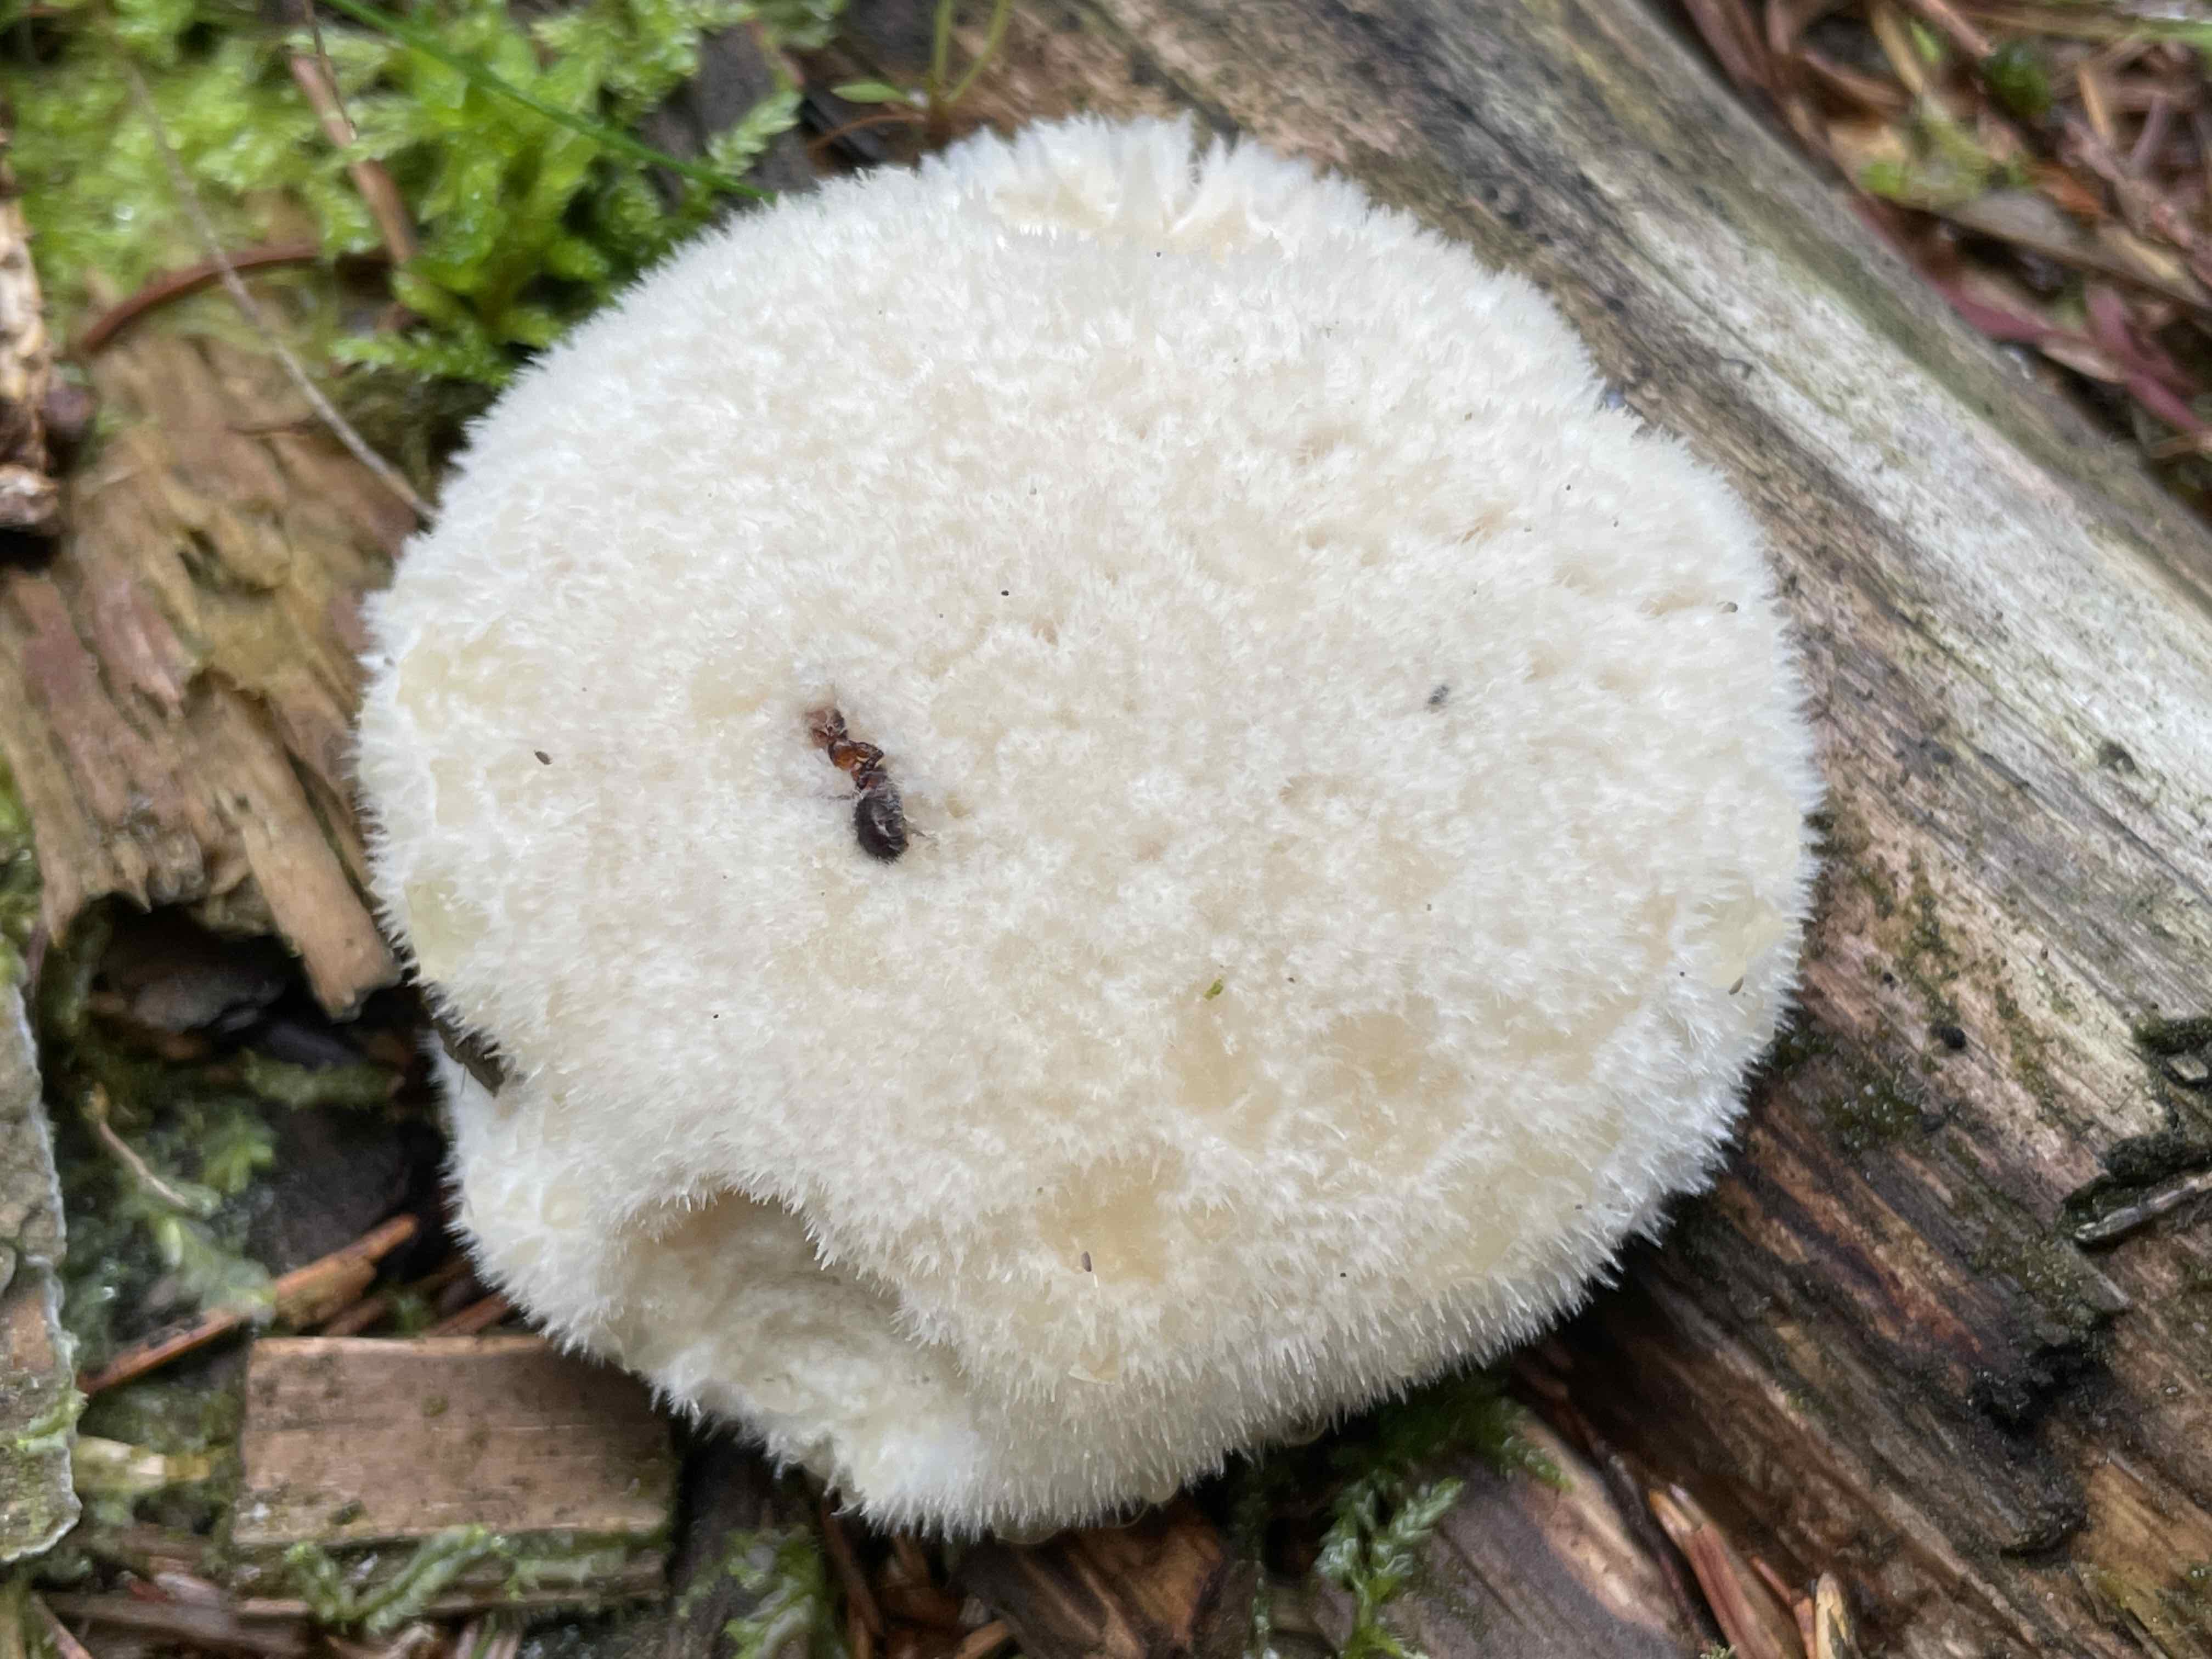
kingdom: Fungi
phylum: Basidiomycota
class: Agaricomycetes
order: Polyporales
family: Dacryobolaceae
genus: Postia
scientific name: Postia ptychogaster
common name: støvende kødporesvamp
